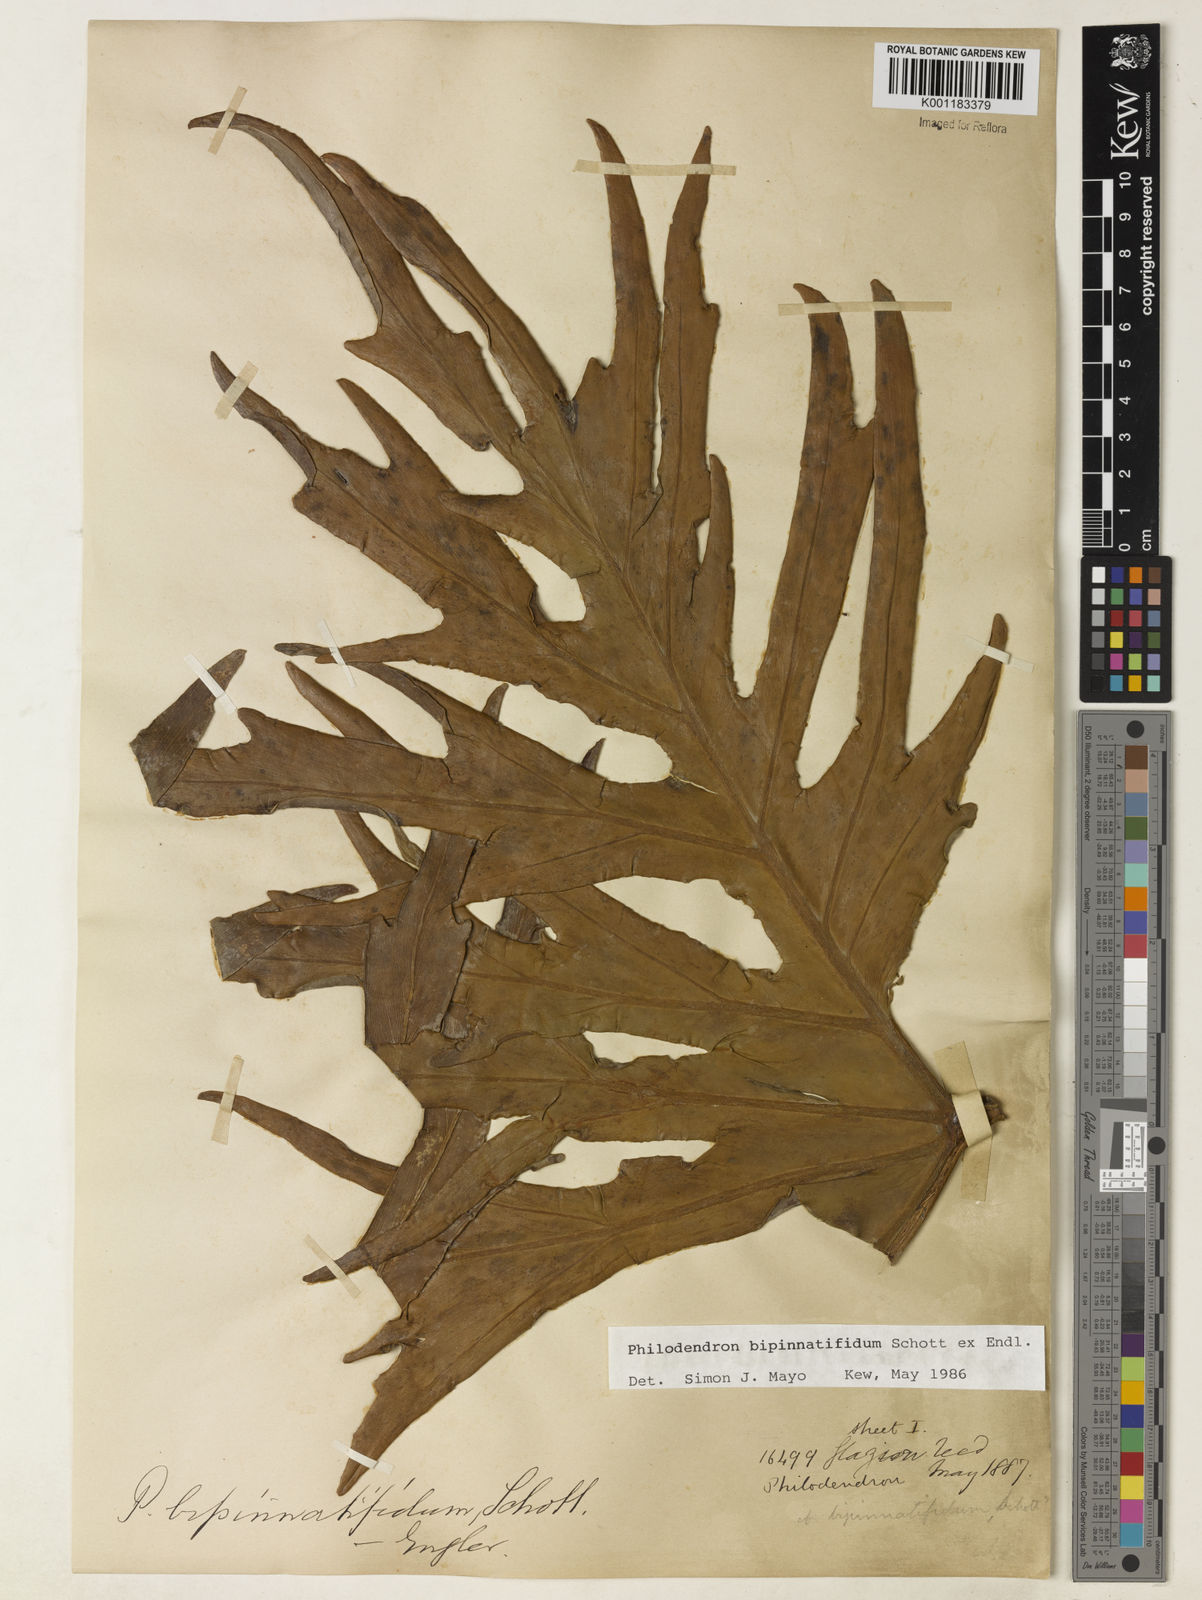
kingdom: Plantae
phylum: Tracheophyta
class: Liliopsida
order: Alismatales
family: Araceae
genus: Philodendron
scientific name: Philodendron
